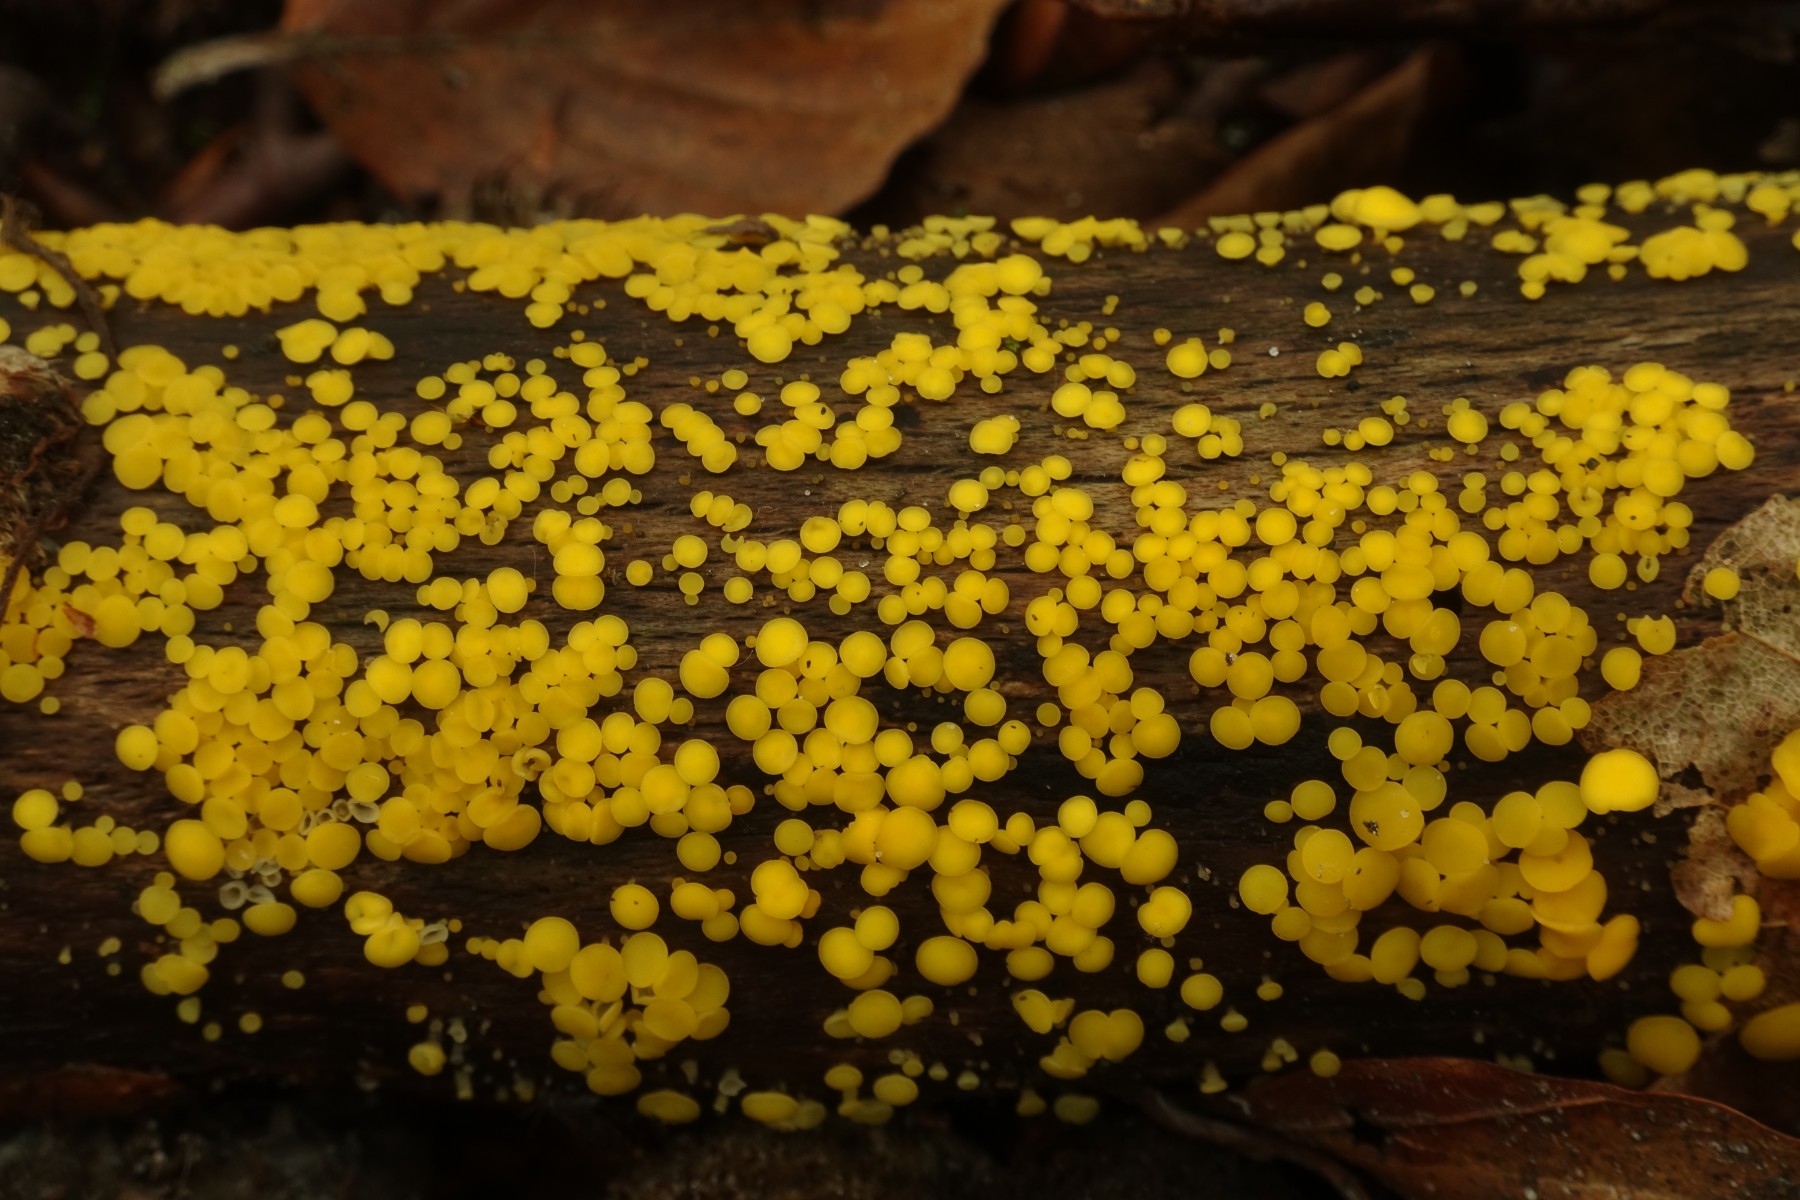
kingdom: Fungi
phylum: Ascomycota
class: Leotiomycetes
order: Helotiales
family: Pezizellaceae
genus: Calycina
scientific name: Calycina citrina
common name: almindelig gulskive
